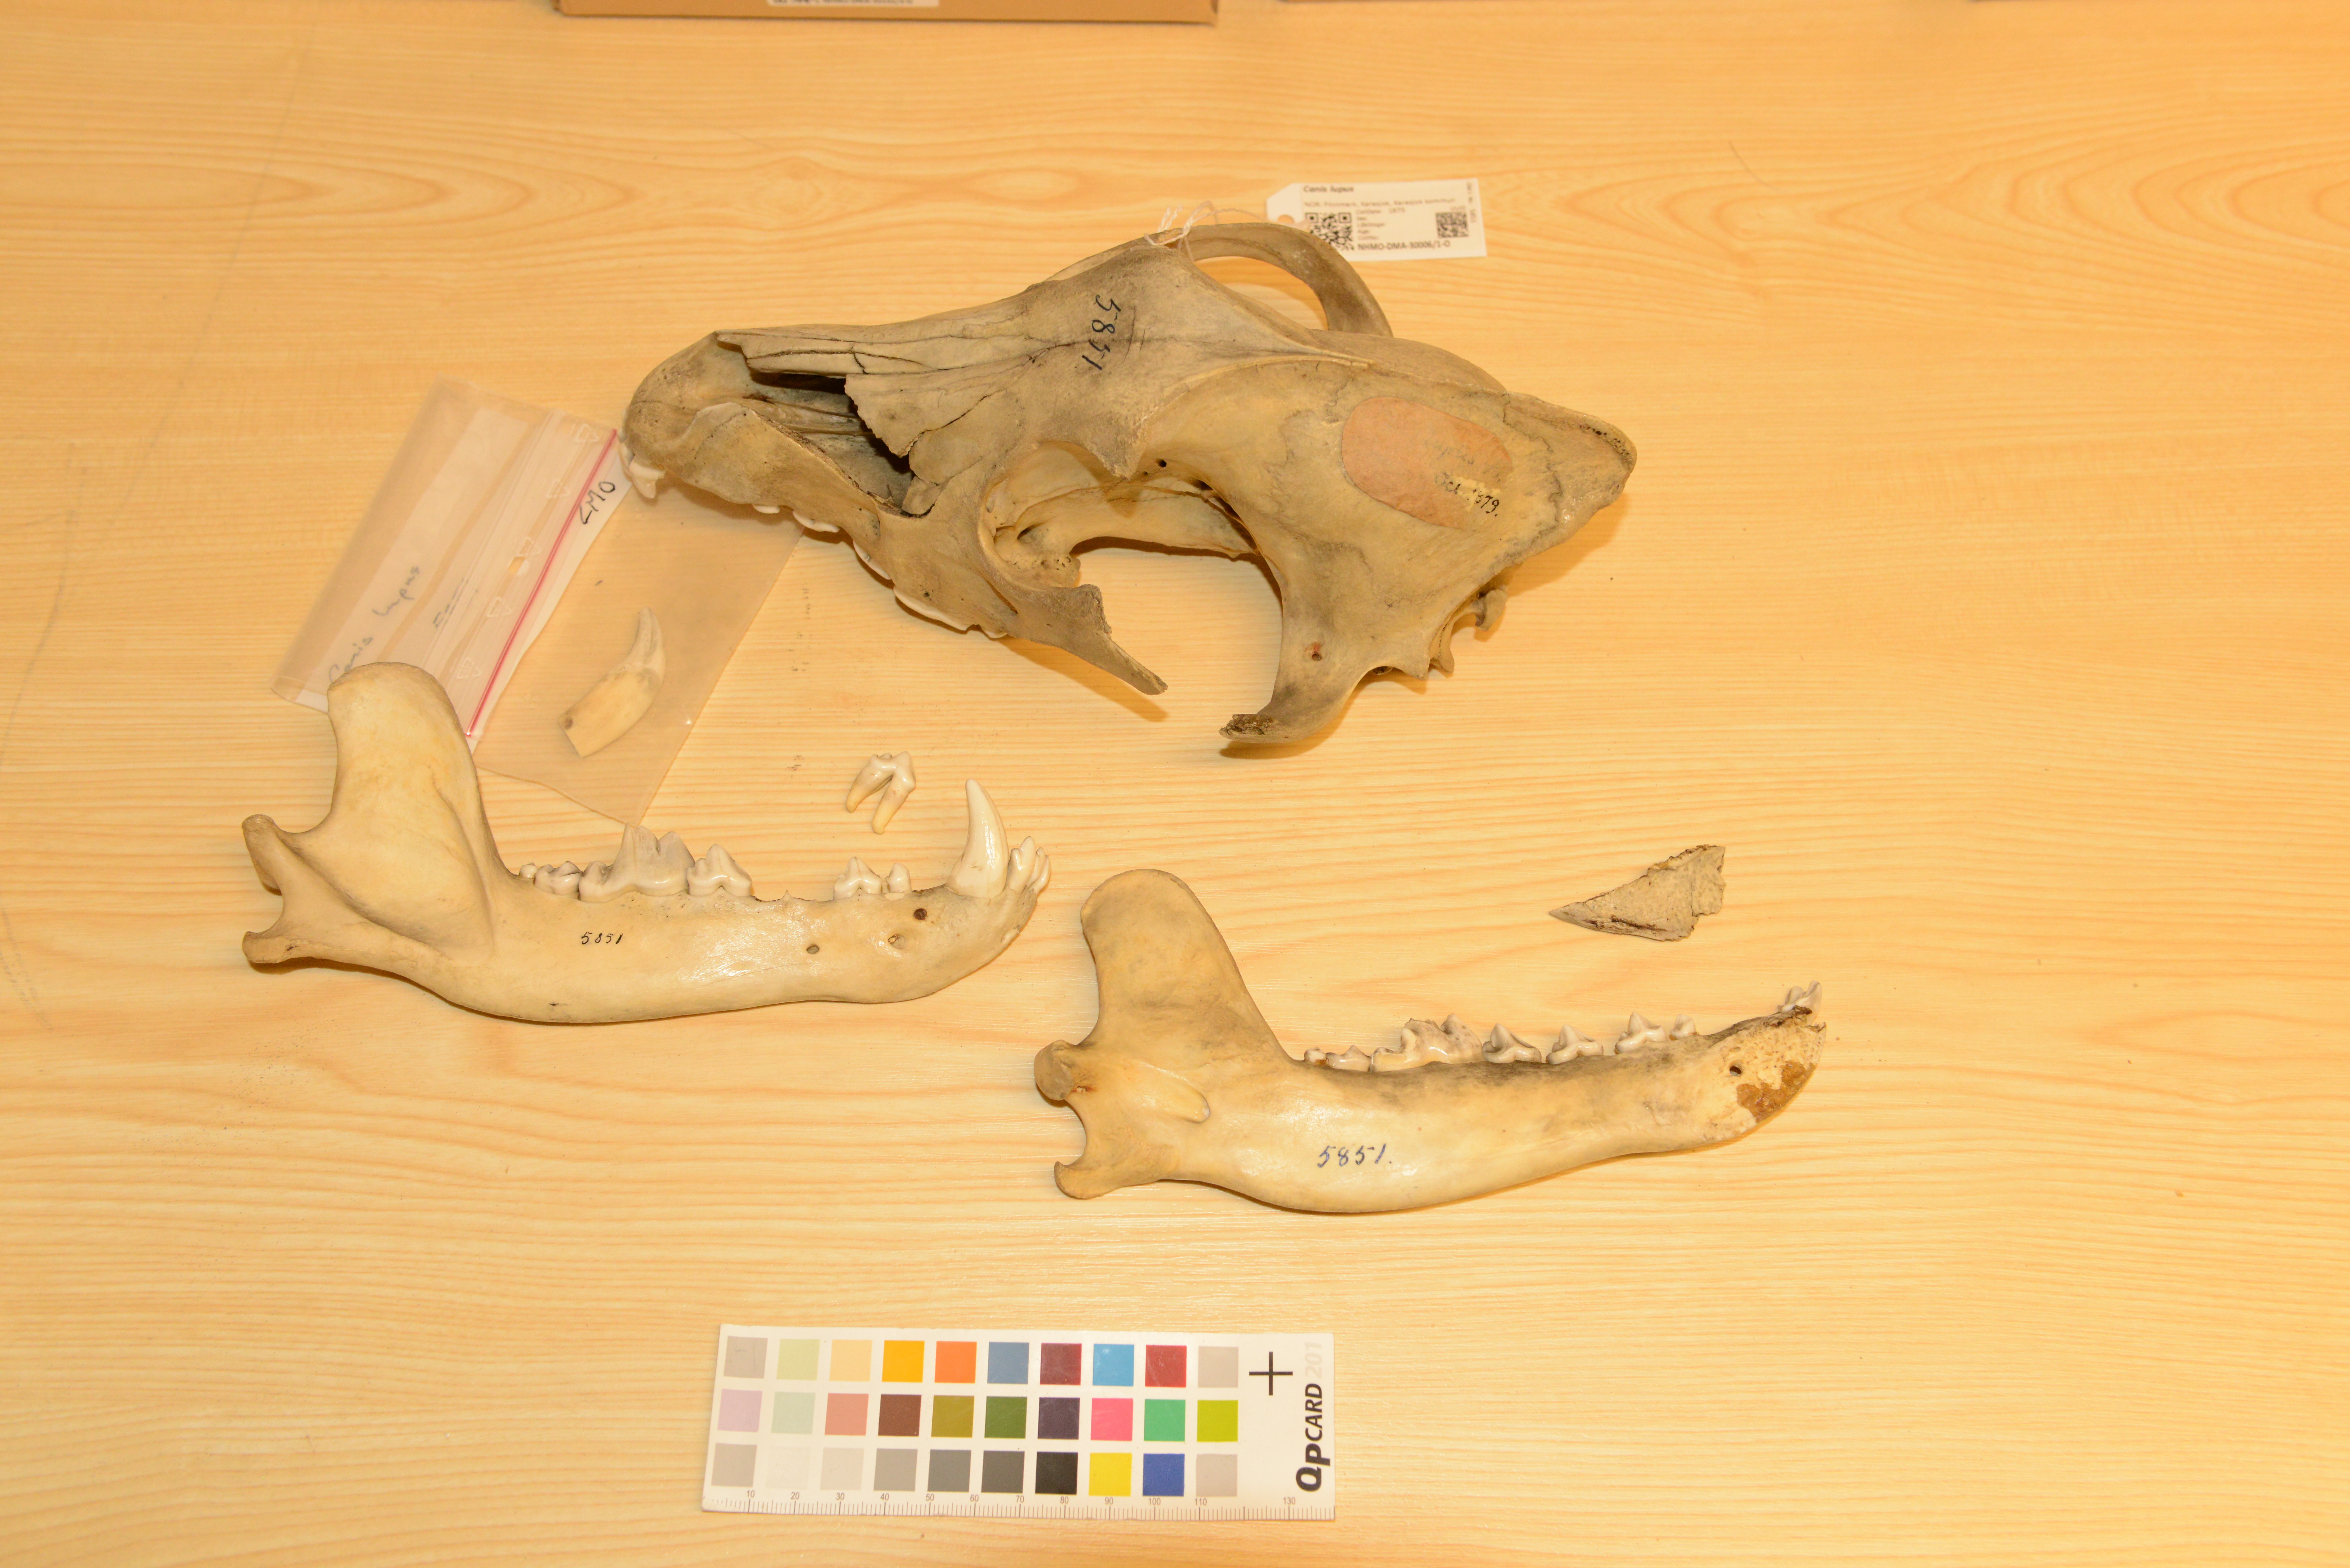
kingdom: Animalia
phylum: Chordata
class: Mammalia
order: Carnivora
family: Canidae
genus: Canis
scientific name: Canis lupus
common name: Gray wolf
